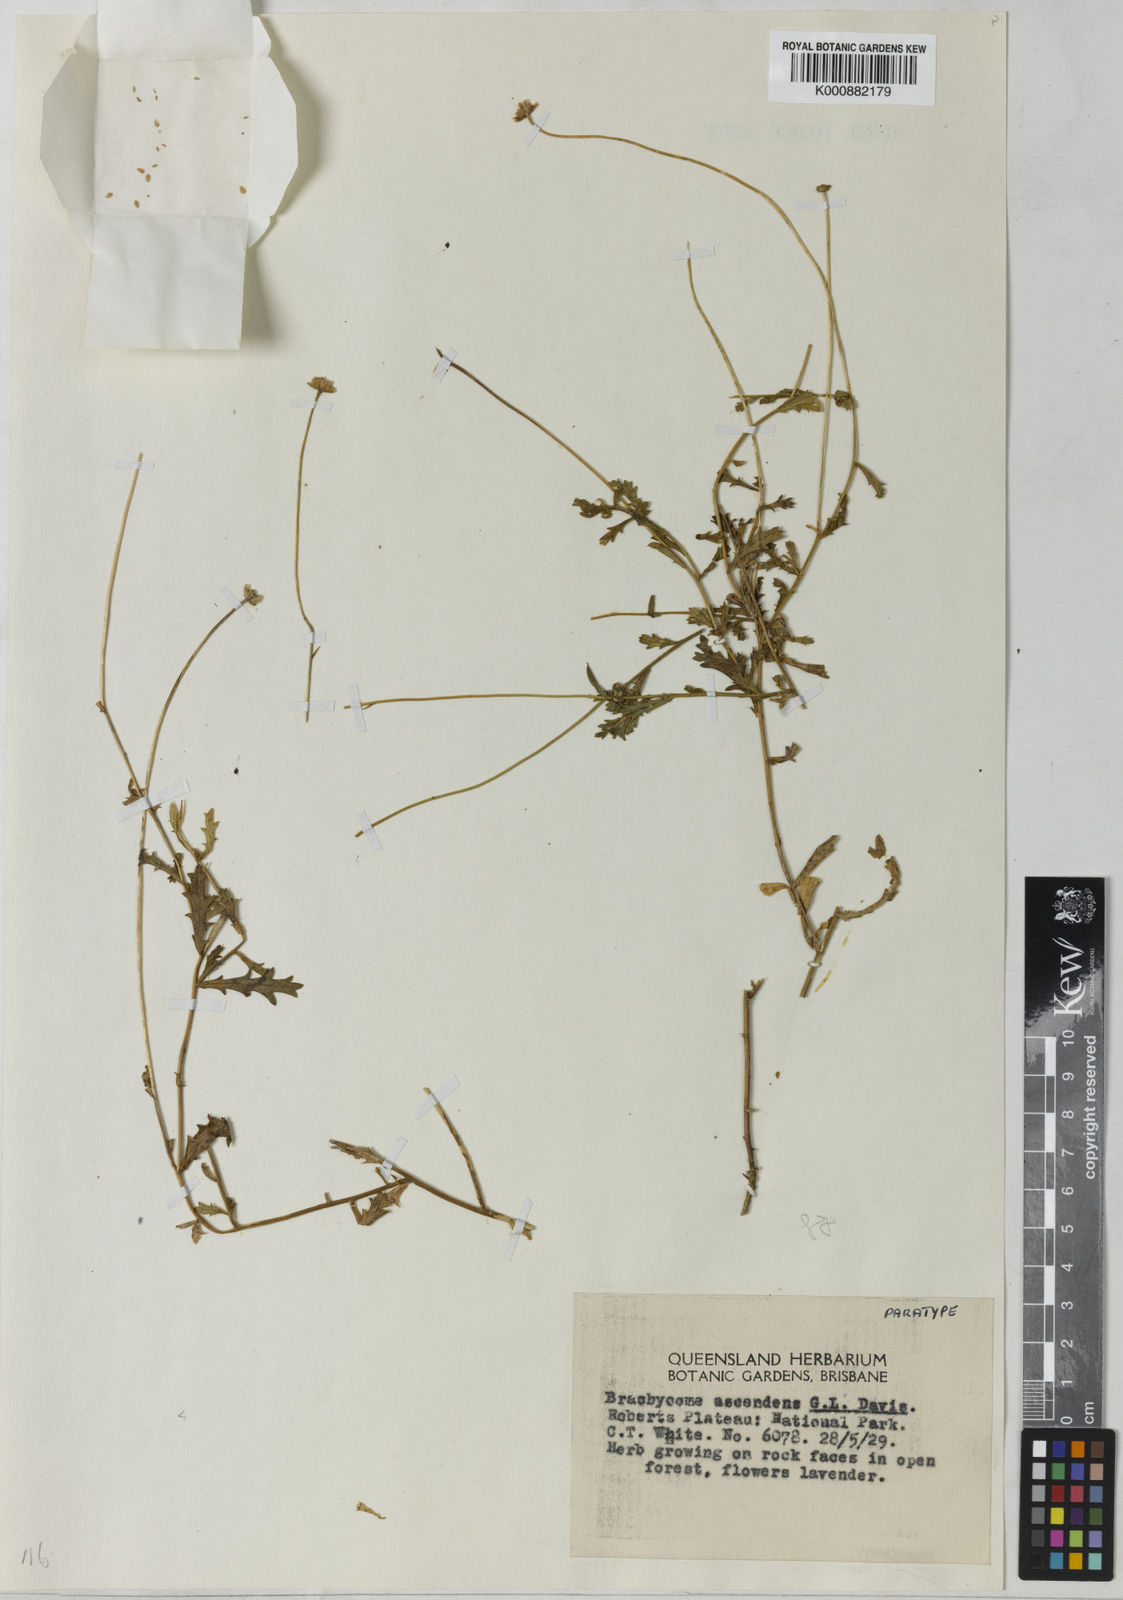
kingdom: Plantae
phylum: Tracheophyta
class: Magnoliopsida
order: Asterales
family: Asteraceae
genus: Brachyscome
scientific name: Brachyscome ascendens
